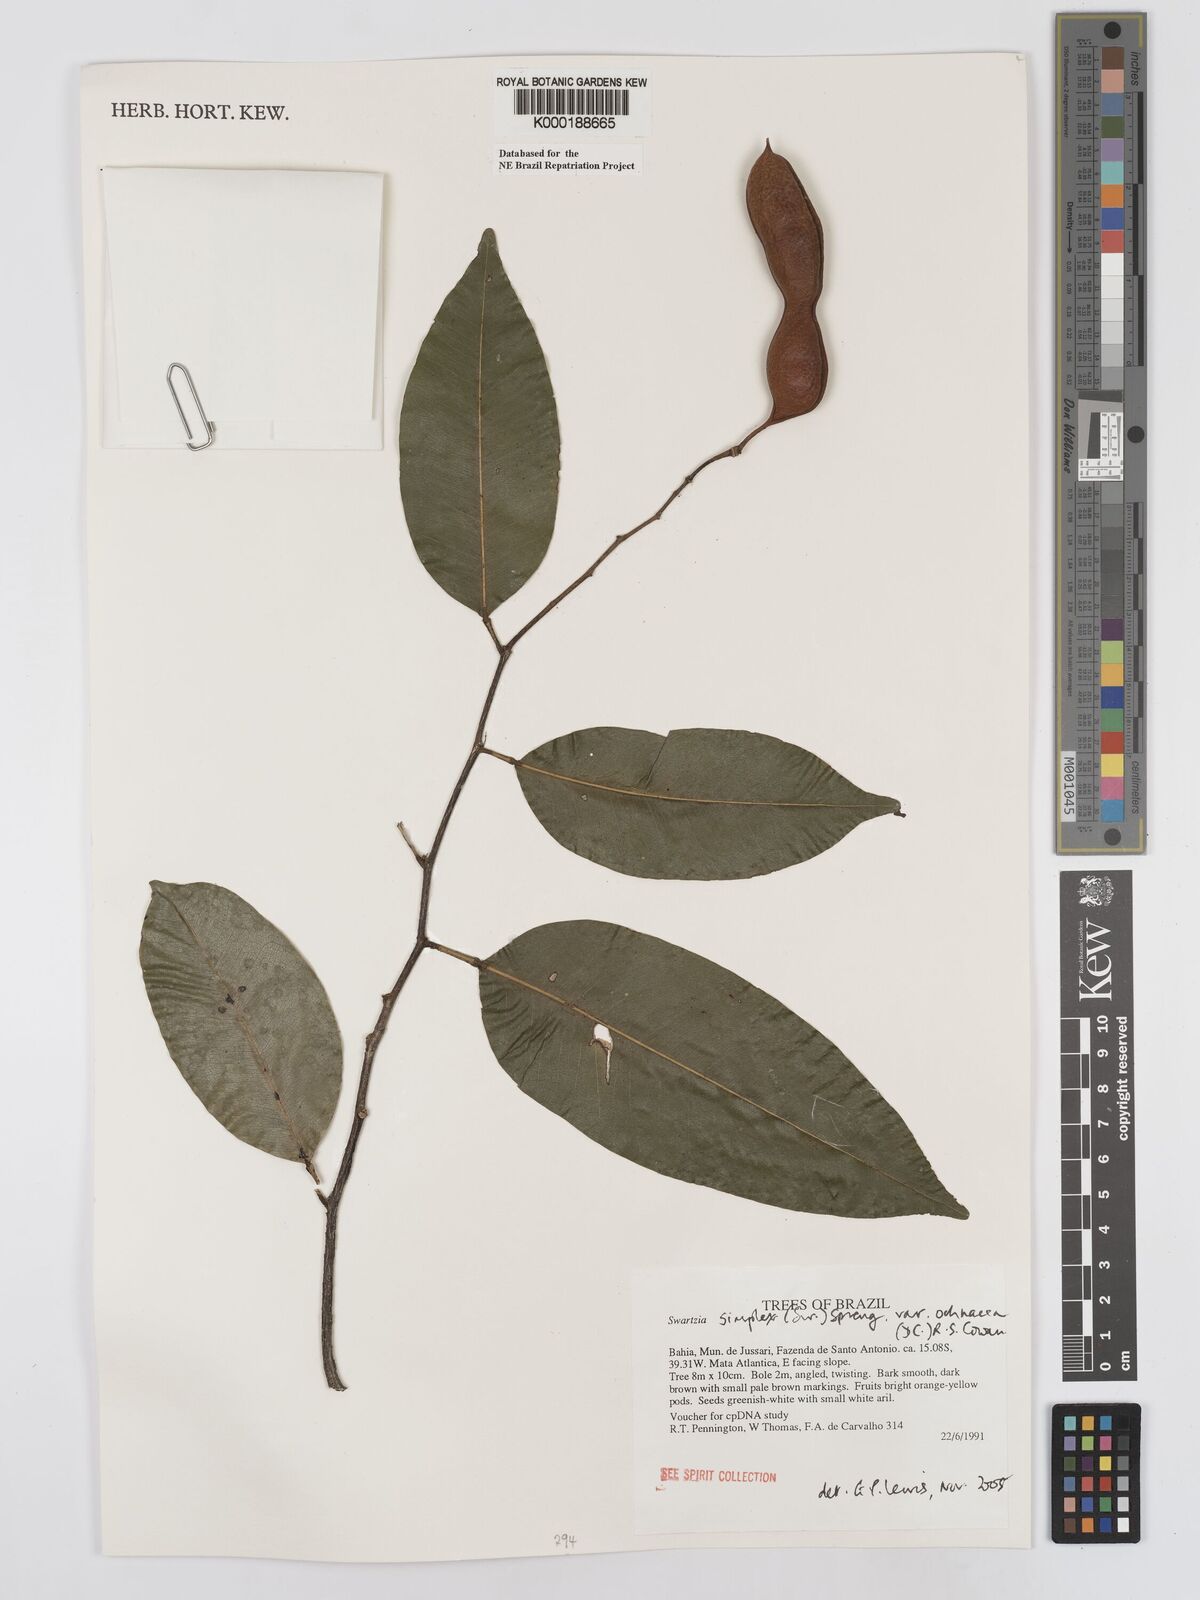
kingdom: Plantae
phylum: Tracheophyta
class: Magnoliopsida
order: Fabales
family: Fabaceae
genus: Swartzia
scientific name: Swartzia
